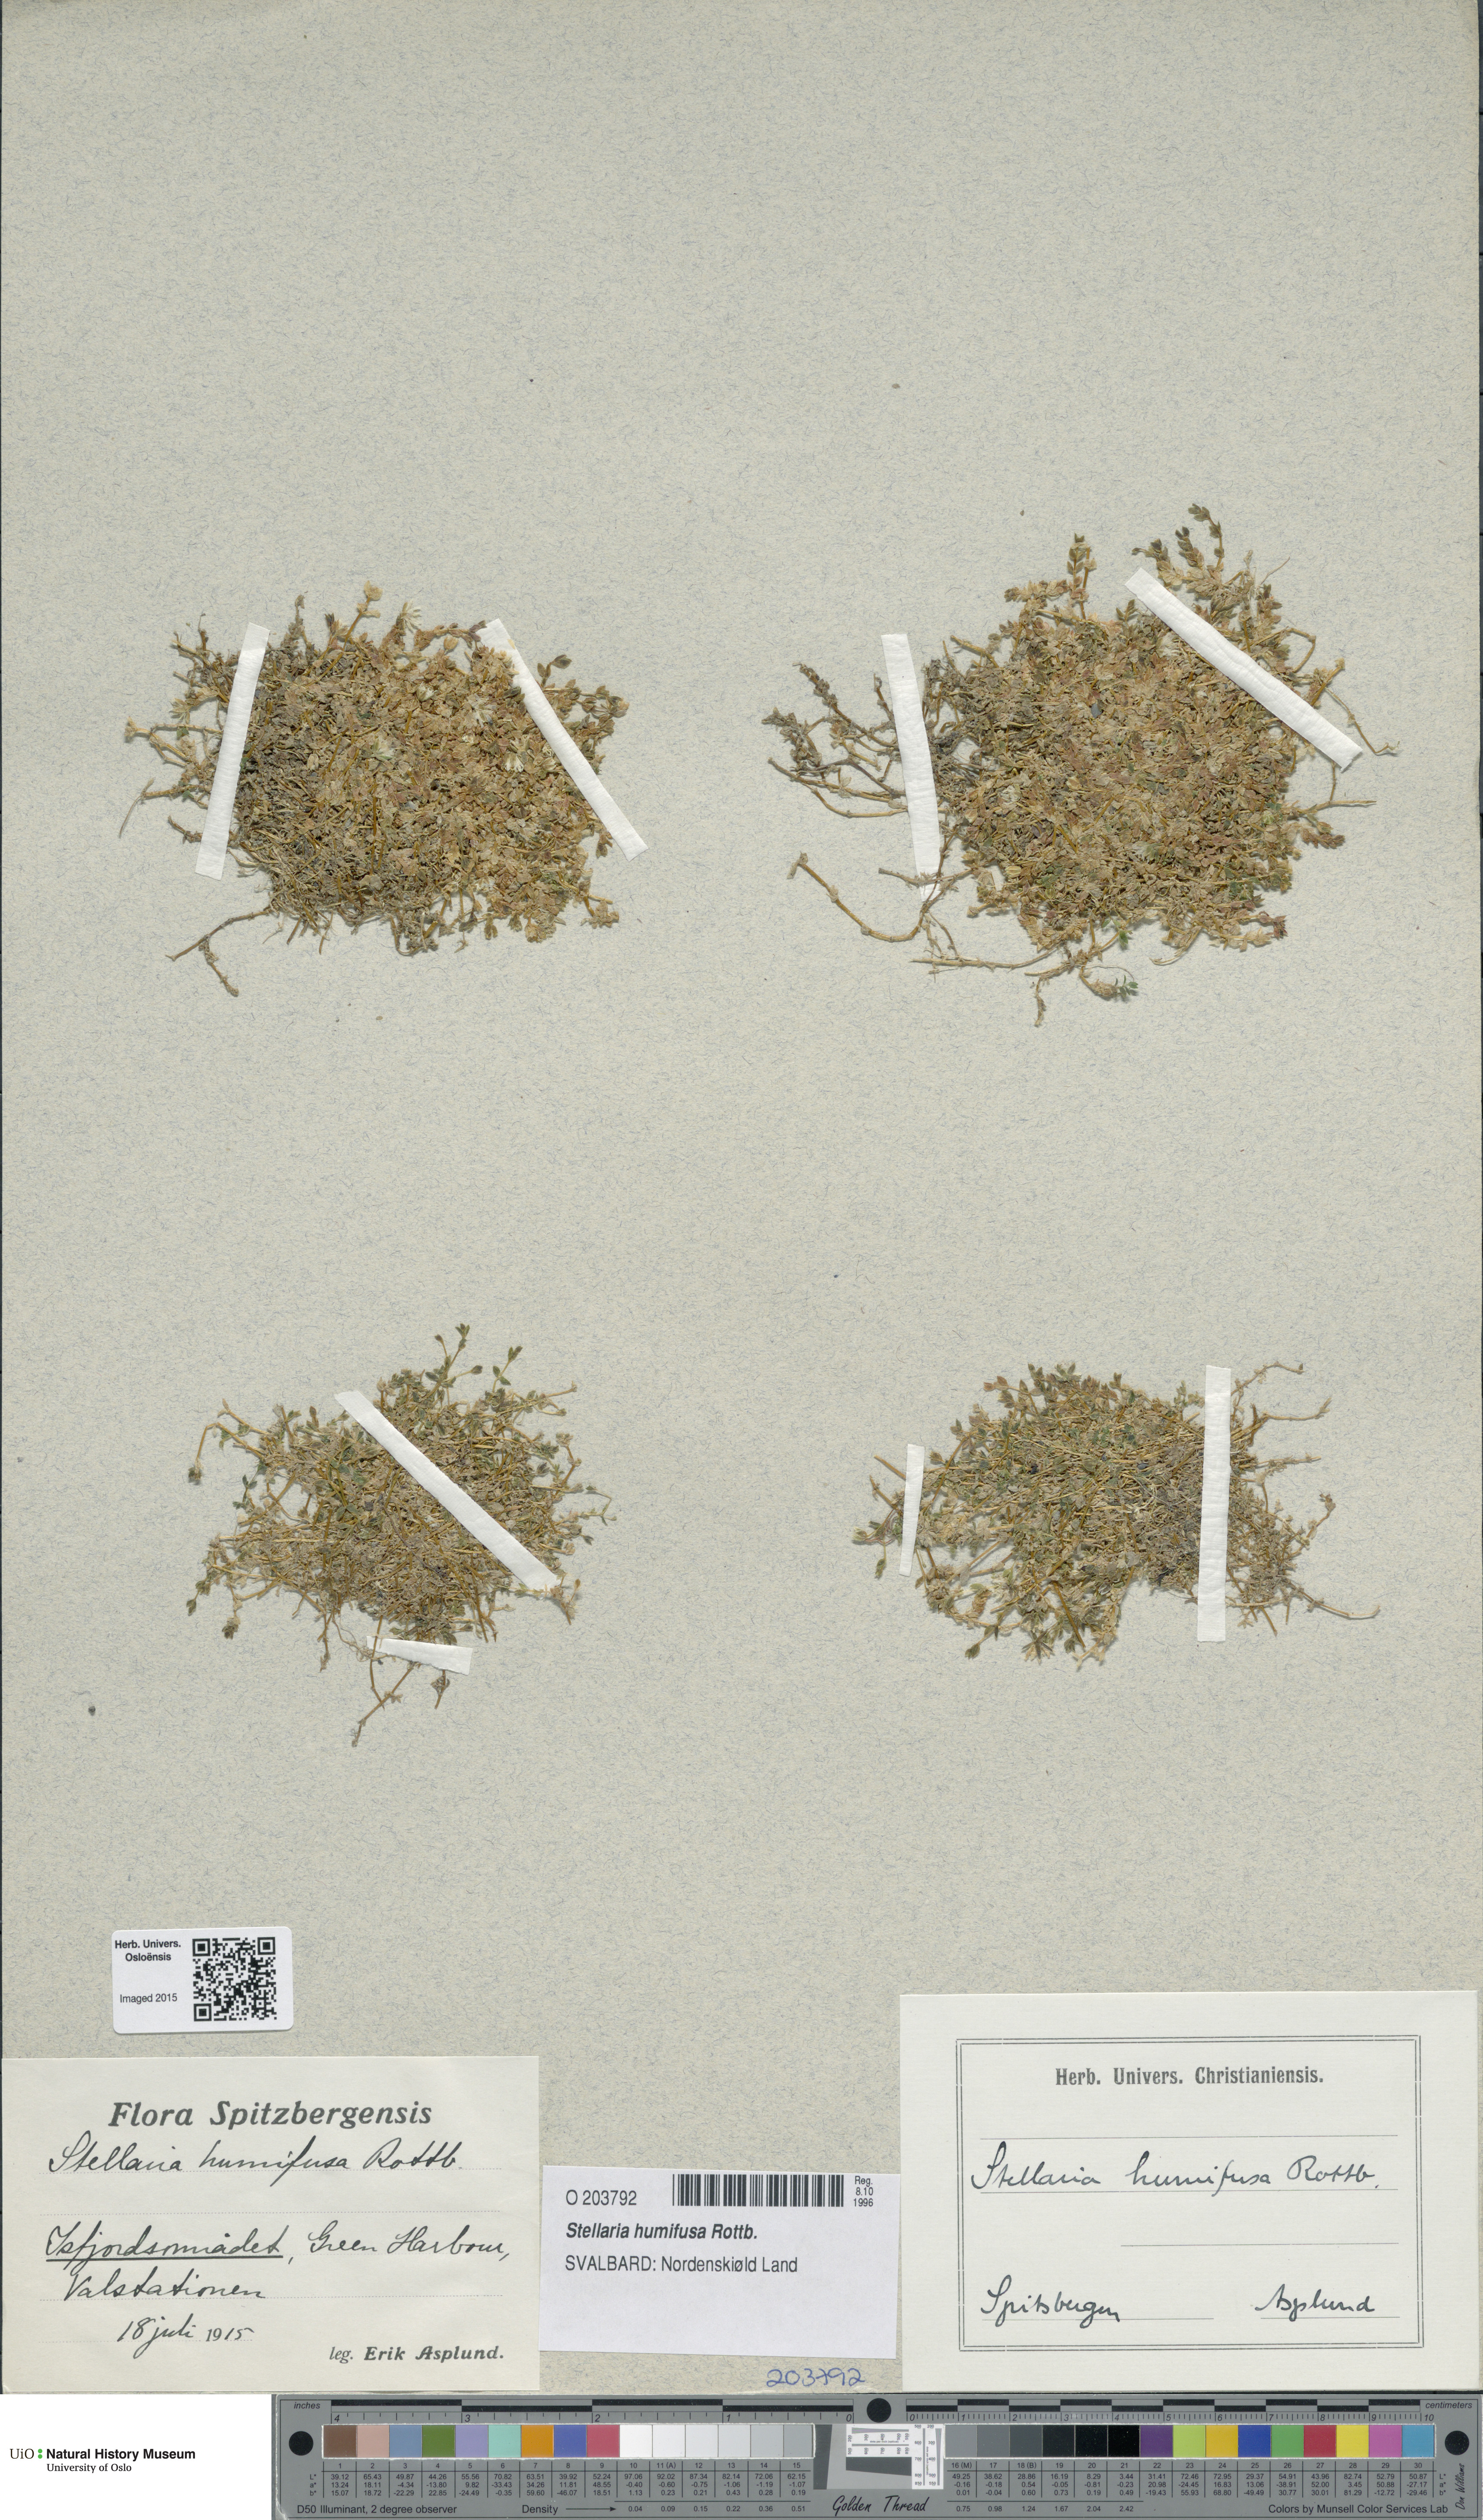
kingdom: Plantae
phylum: Tracheophyta
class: Magnoliopsida
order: Caryophyllales
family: Caryophyllaceae
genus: Stellaria
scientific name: Stellaria humifusa
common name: Creeping starwort
